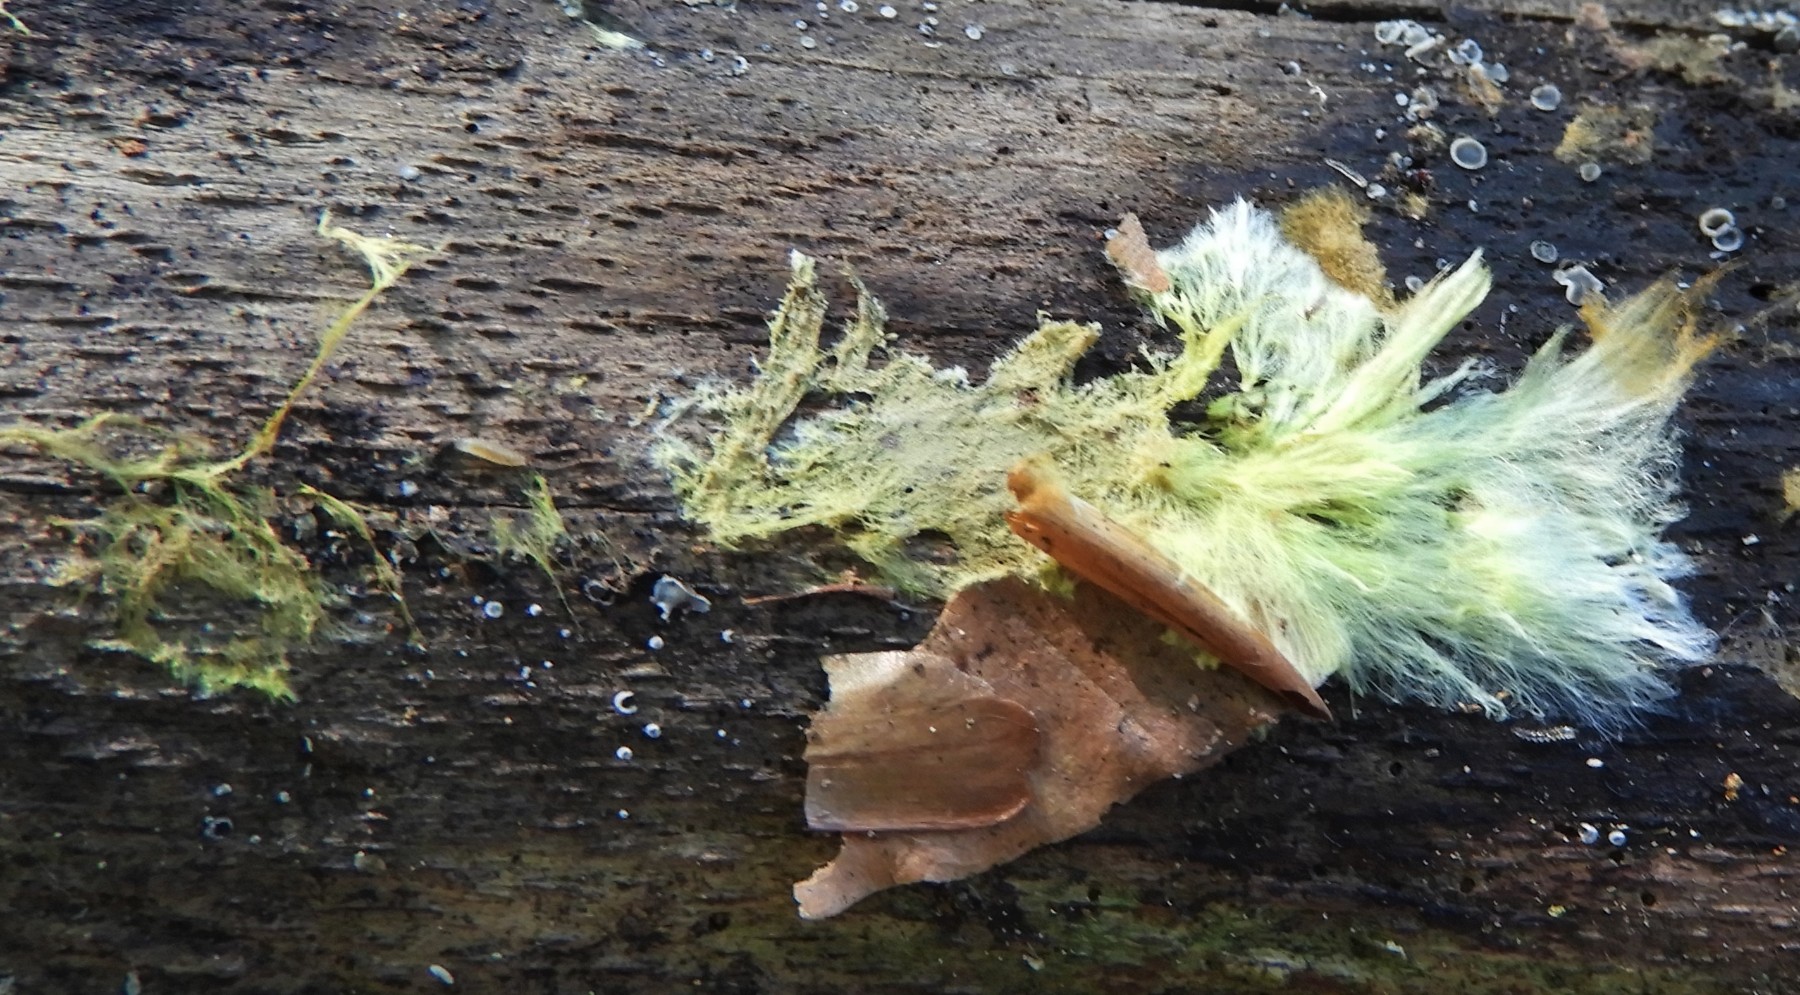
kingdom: Fungi
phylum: Basidiomycota
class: Agaricomycetes
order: Russulales
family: Xenasmataceae
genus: Xenasmatella
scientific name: Xenasmatella vaga
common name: svovl-strenghinde
